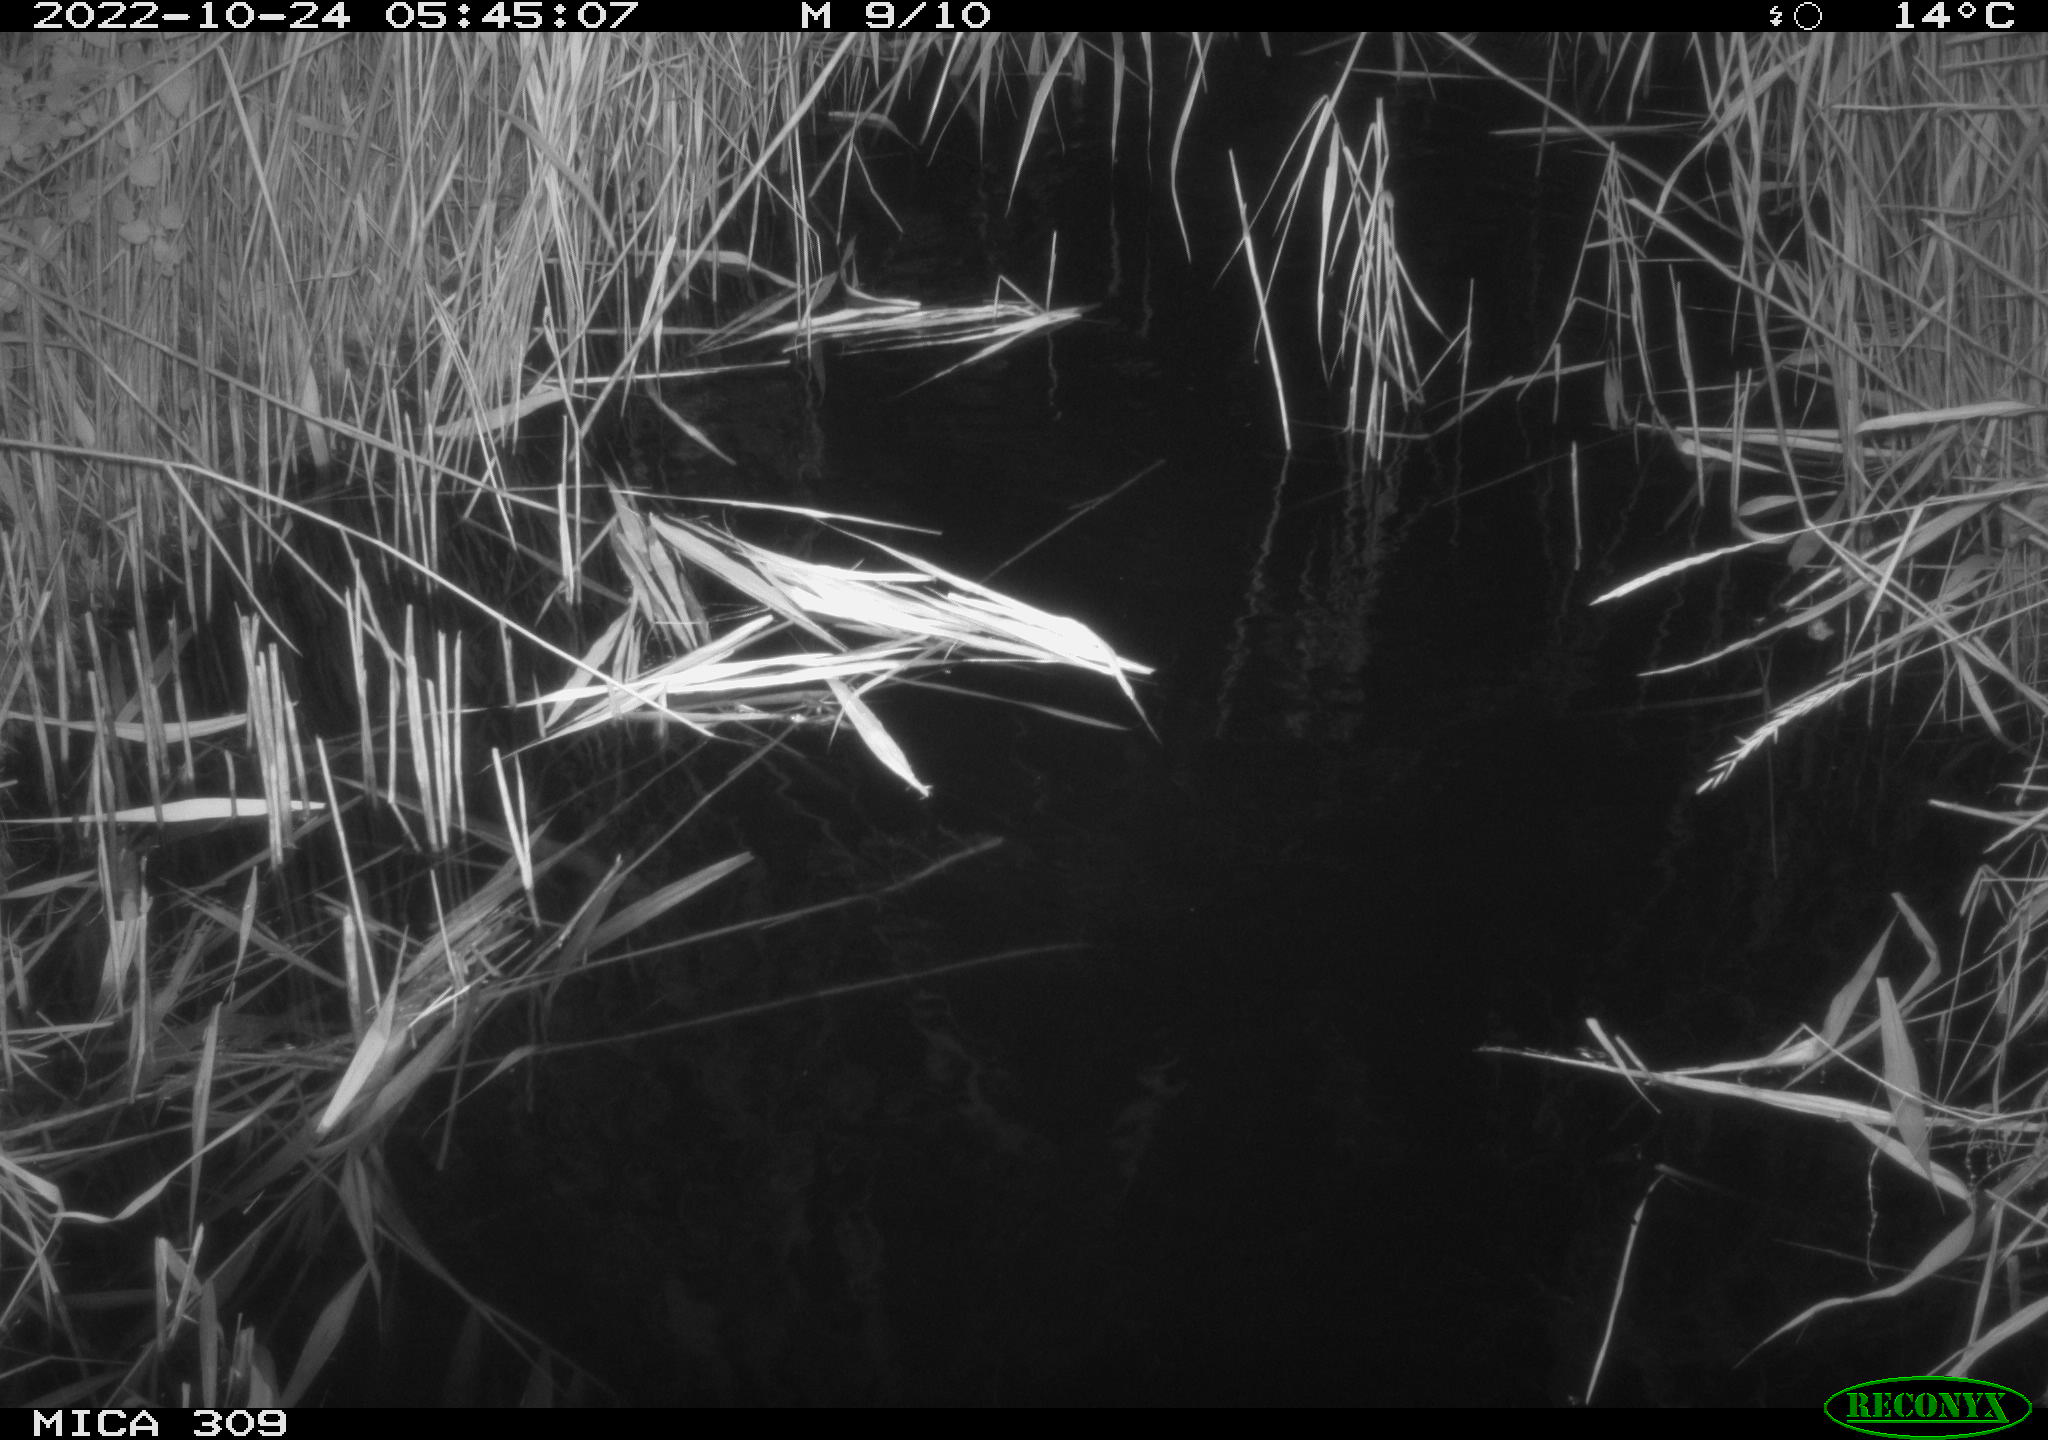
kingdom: Animalia
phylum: Chordata
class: Mammalia
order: Rodentia
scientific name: Rodentia
